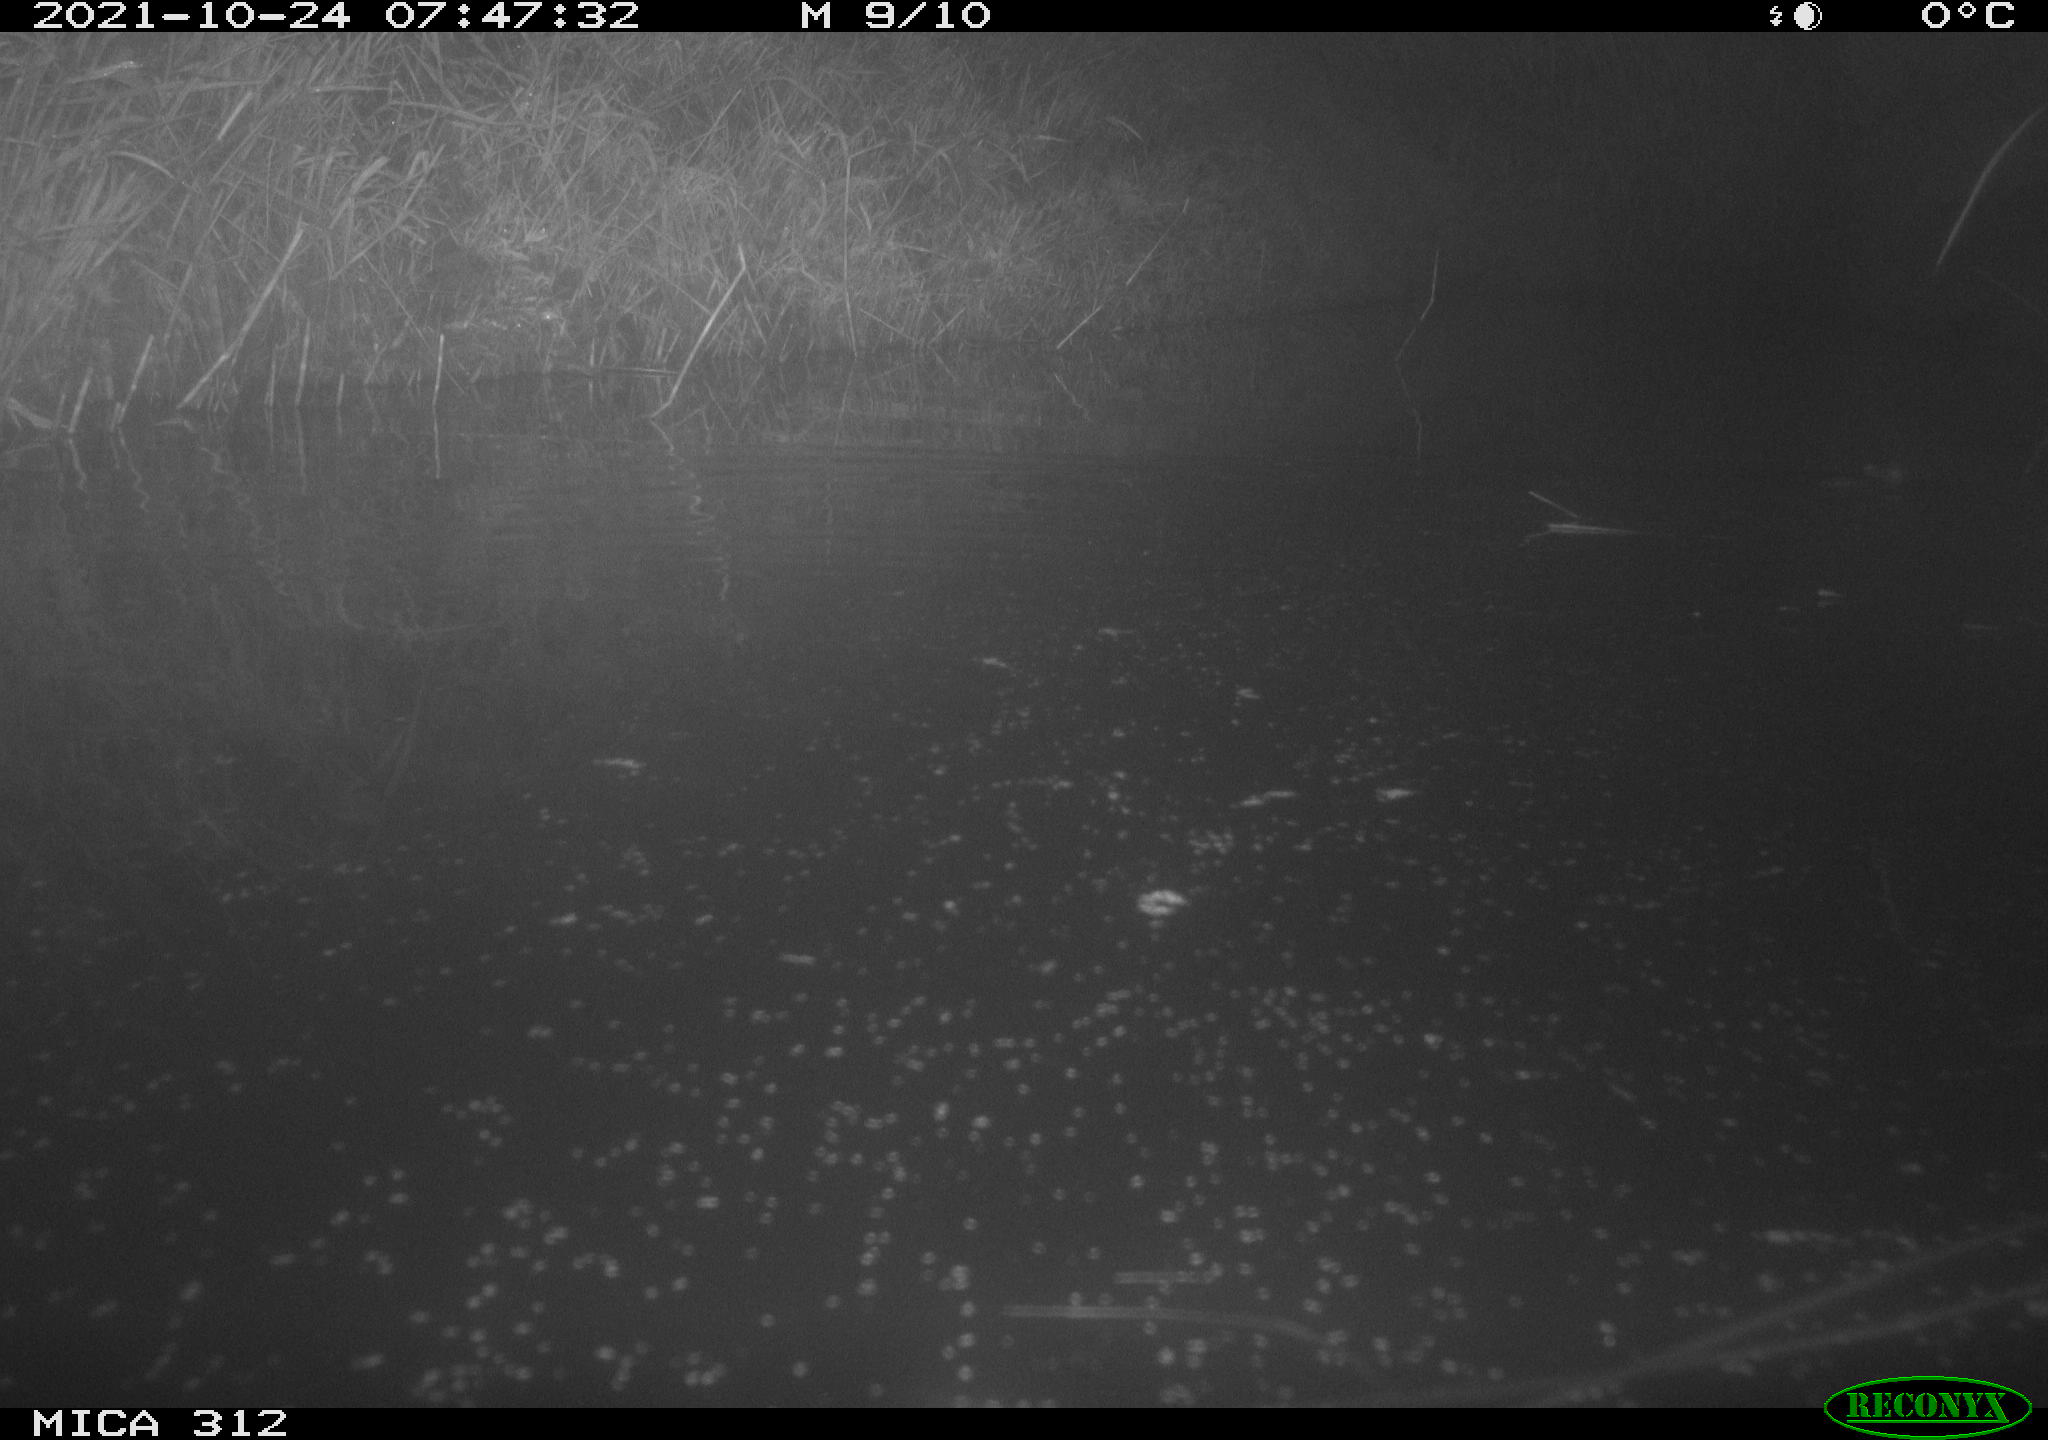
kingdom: Animalia
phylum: Chordata
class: Mammalia
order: Rodentia
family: Muridae
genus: Rattus
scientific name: Rattus norvegicus
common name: Brown rat
